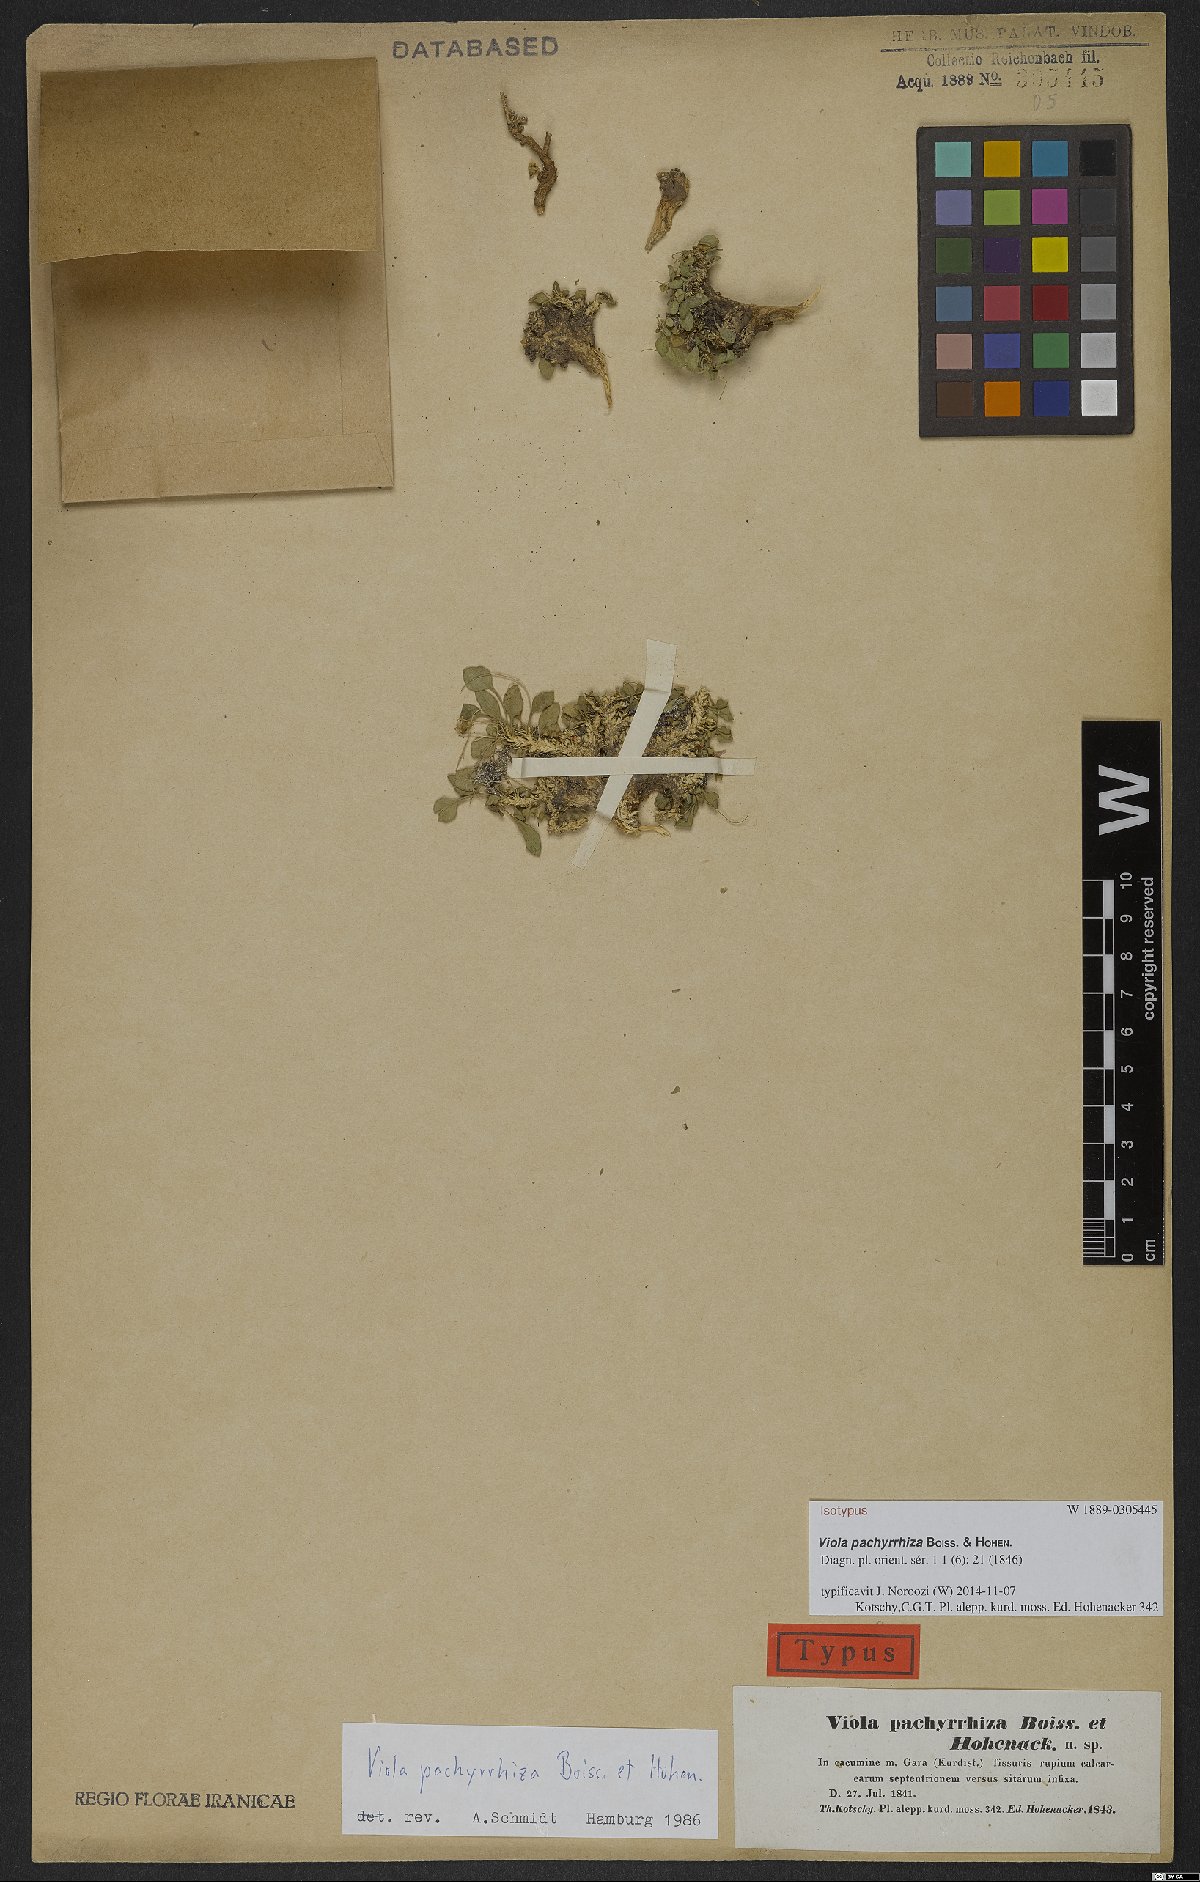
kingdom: Plantae
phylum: Tracheophyta
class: Magnoliopsida
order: Malpighiales
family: Violaceae
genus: Viola
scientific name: Viola pachyrrhiza
